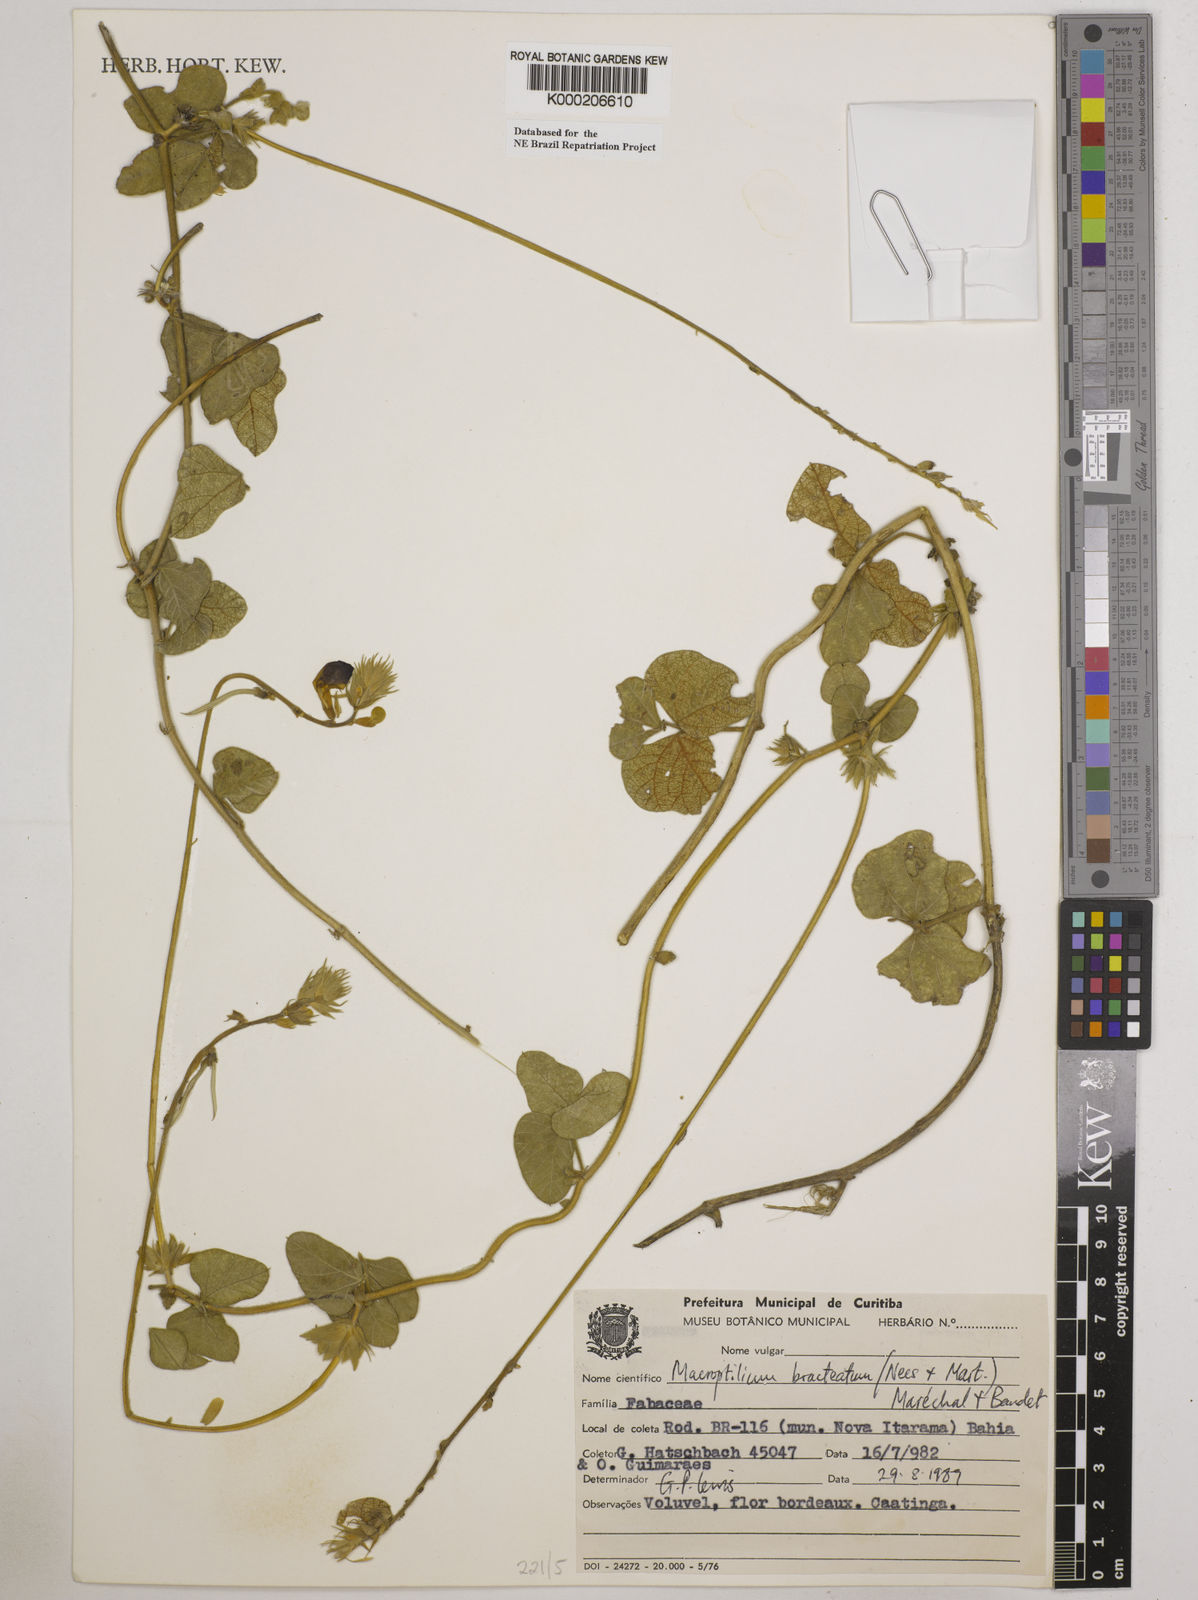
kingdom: Plantae
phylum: Tracheophyta
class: Magnoliopsida
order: Fabales
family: Fabaceae
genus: Macroptilium
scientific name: Macroptilium
